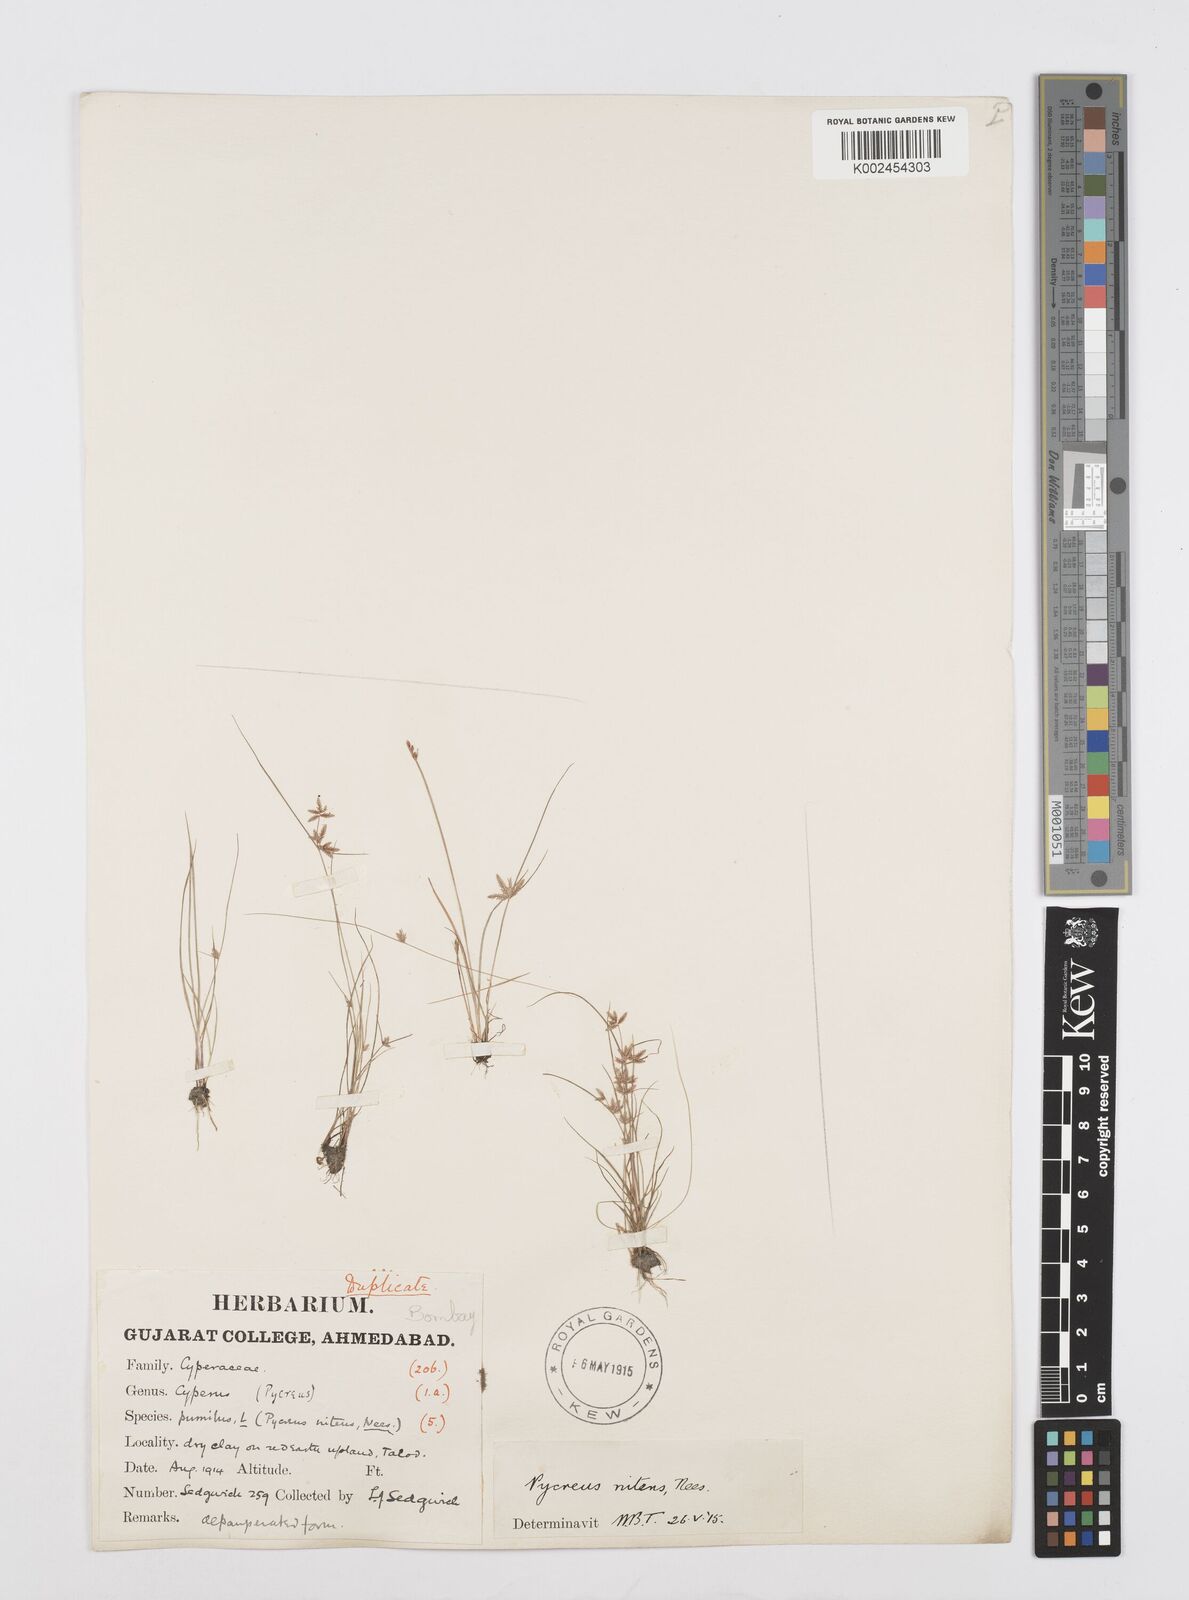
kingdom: Plantae
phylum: Tracheophyta
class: Liliopsida
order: Poales
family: Cyperaceae
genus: Cyperus
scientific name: Cyperus pumilus
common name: Low flatsedge
